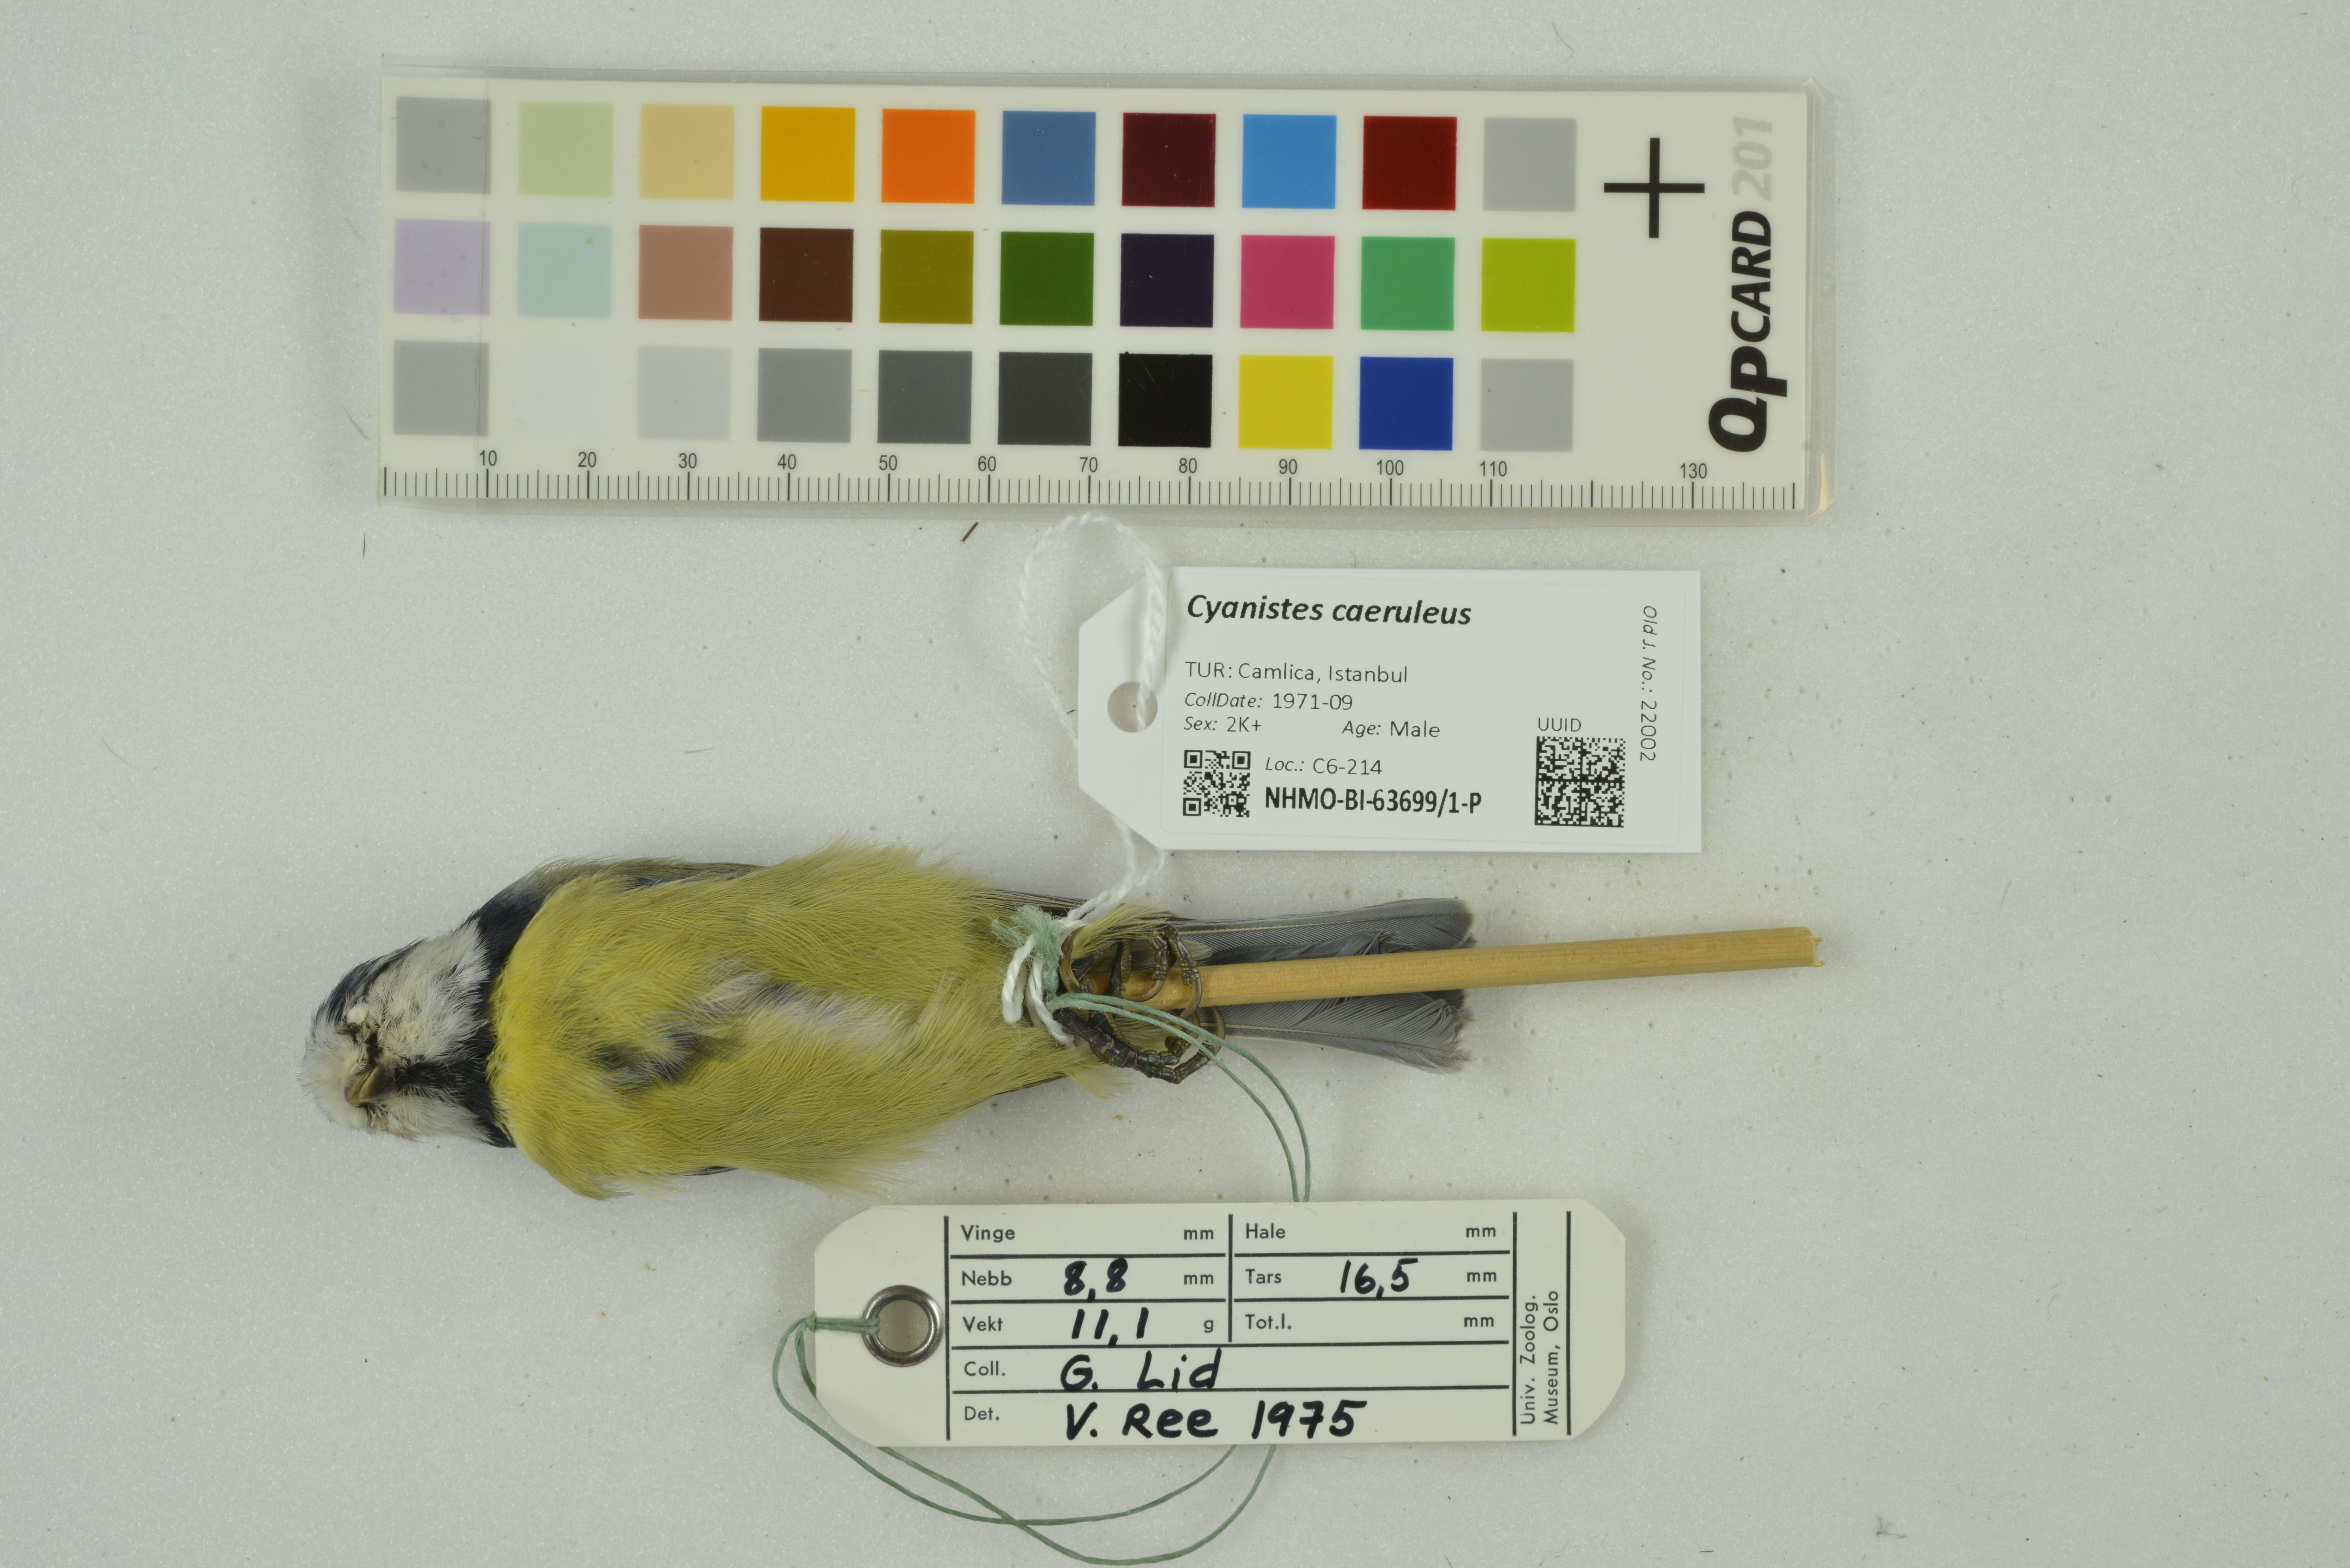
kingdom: Animalia
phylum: Chordata
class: Aves
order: Passeriformes
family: Paridae
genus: Cyanistes
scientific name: Cyanistes caeruleus
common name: Eurasian blue tit
